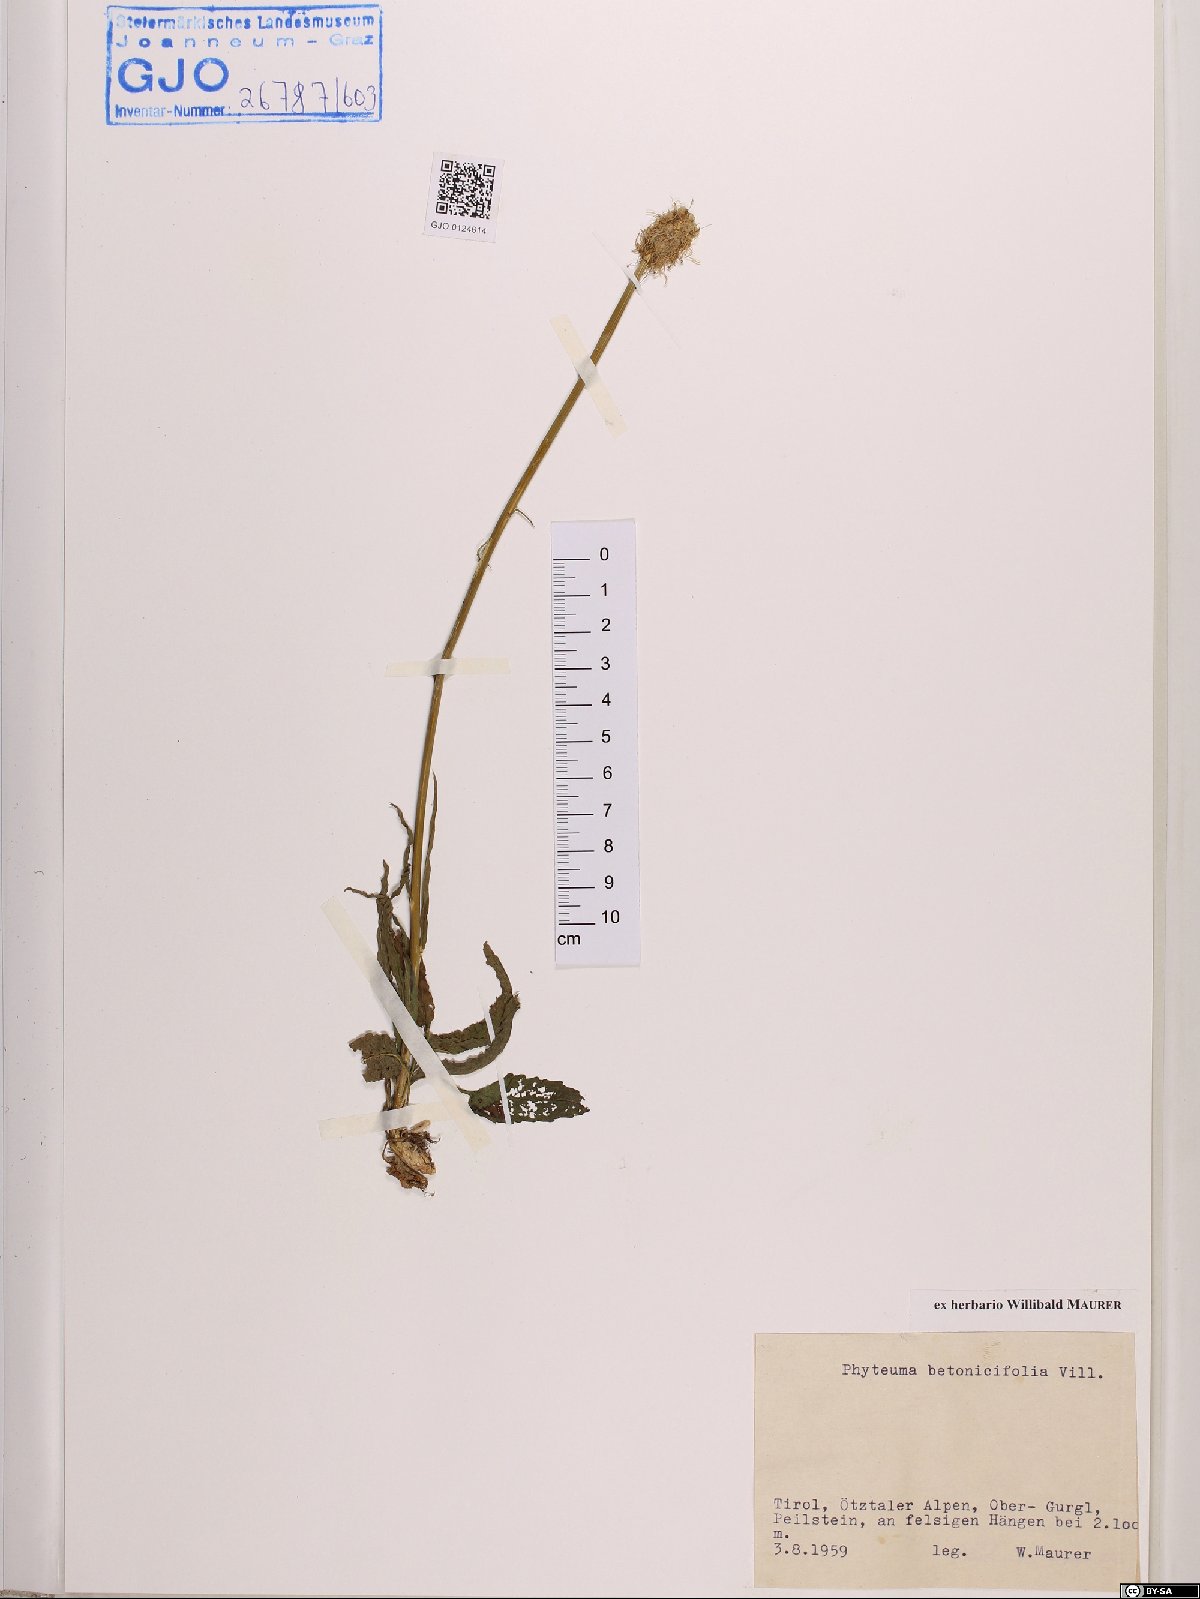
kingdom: Plantae
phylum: Tracheophyta
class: Magnoliopsida
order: Asterales
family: Campanulaceae
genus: Phyteuma
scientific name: Phyteuma betonicifolium
